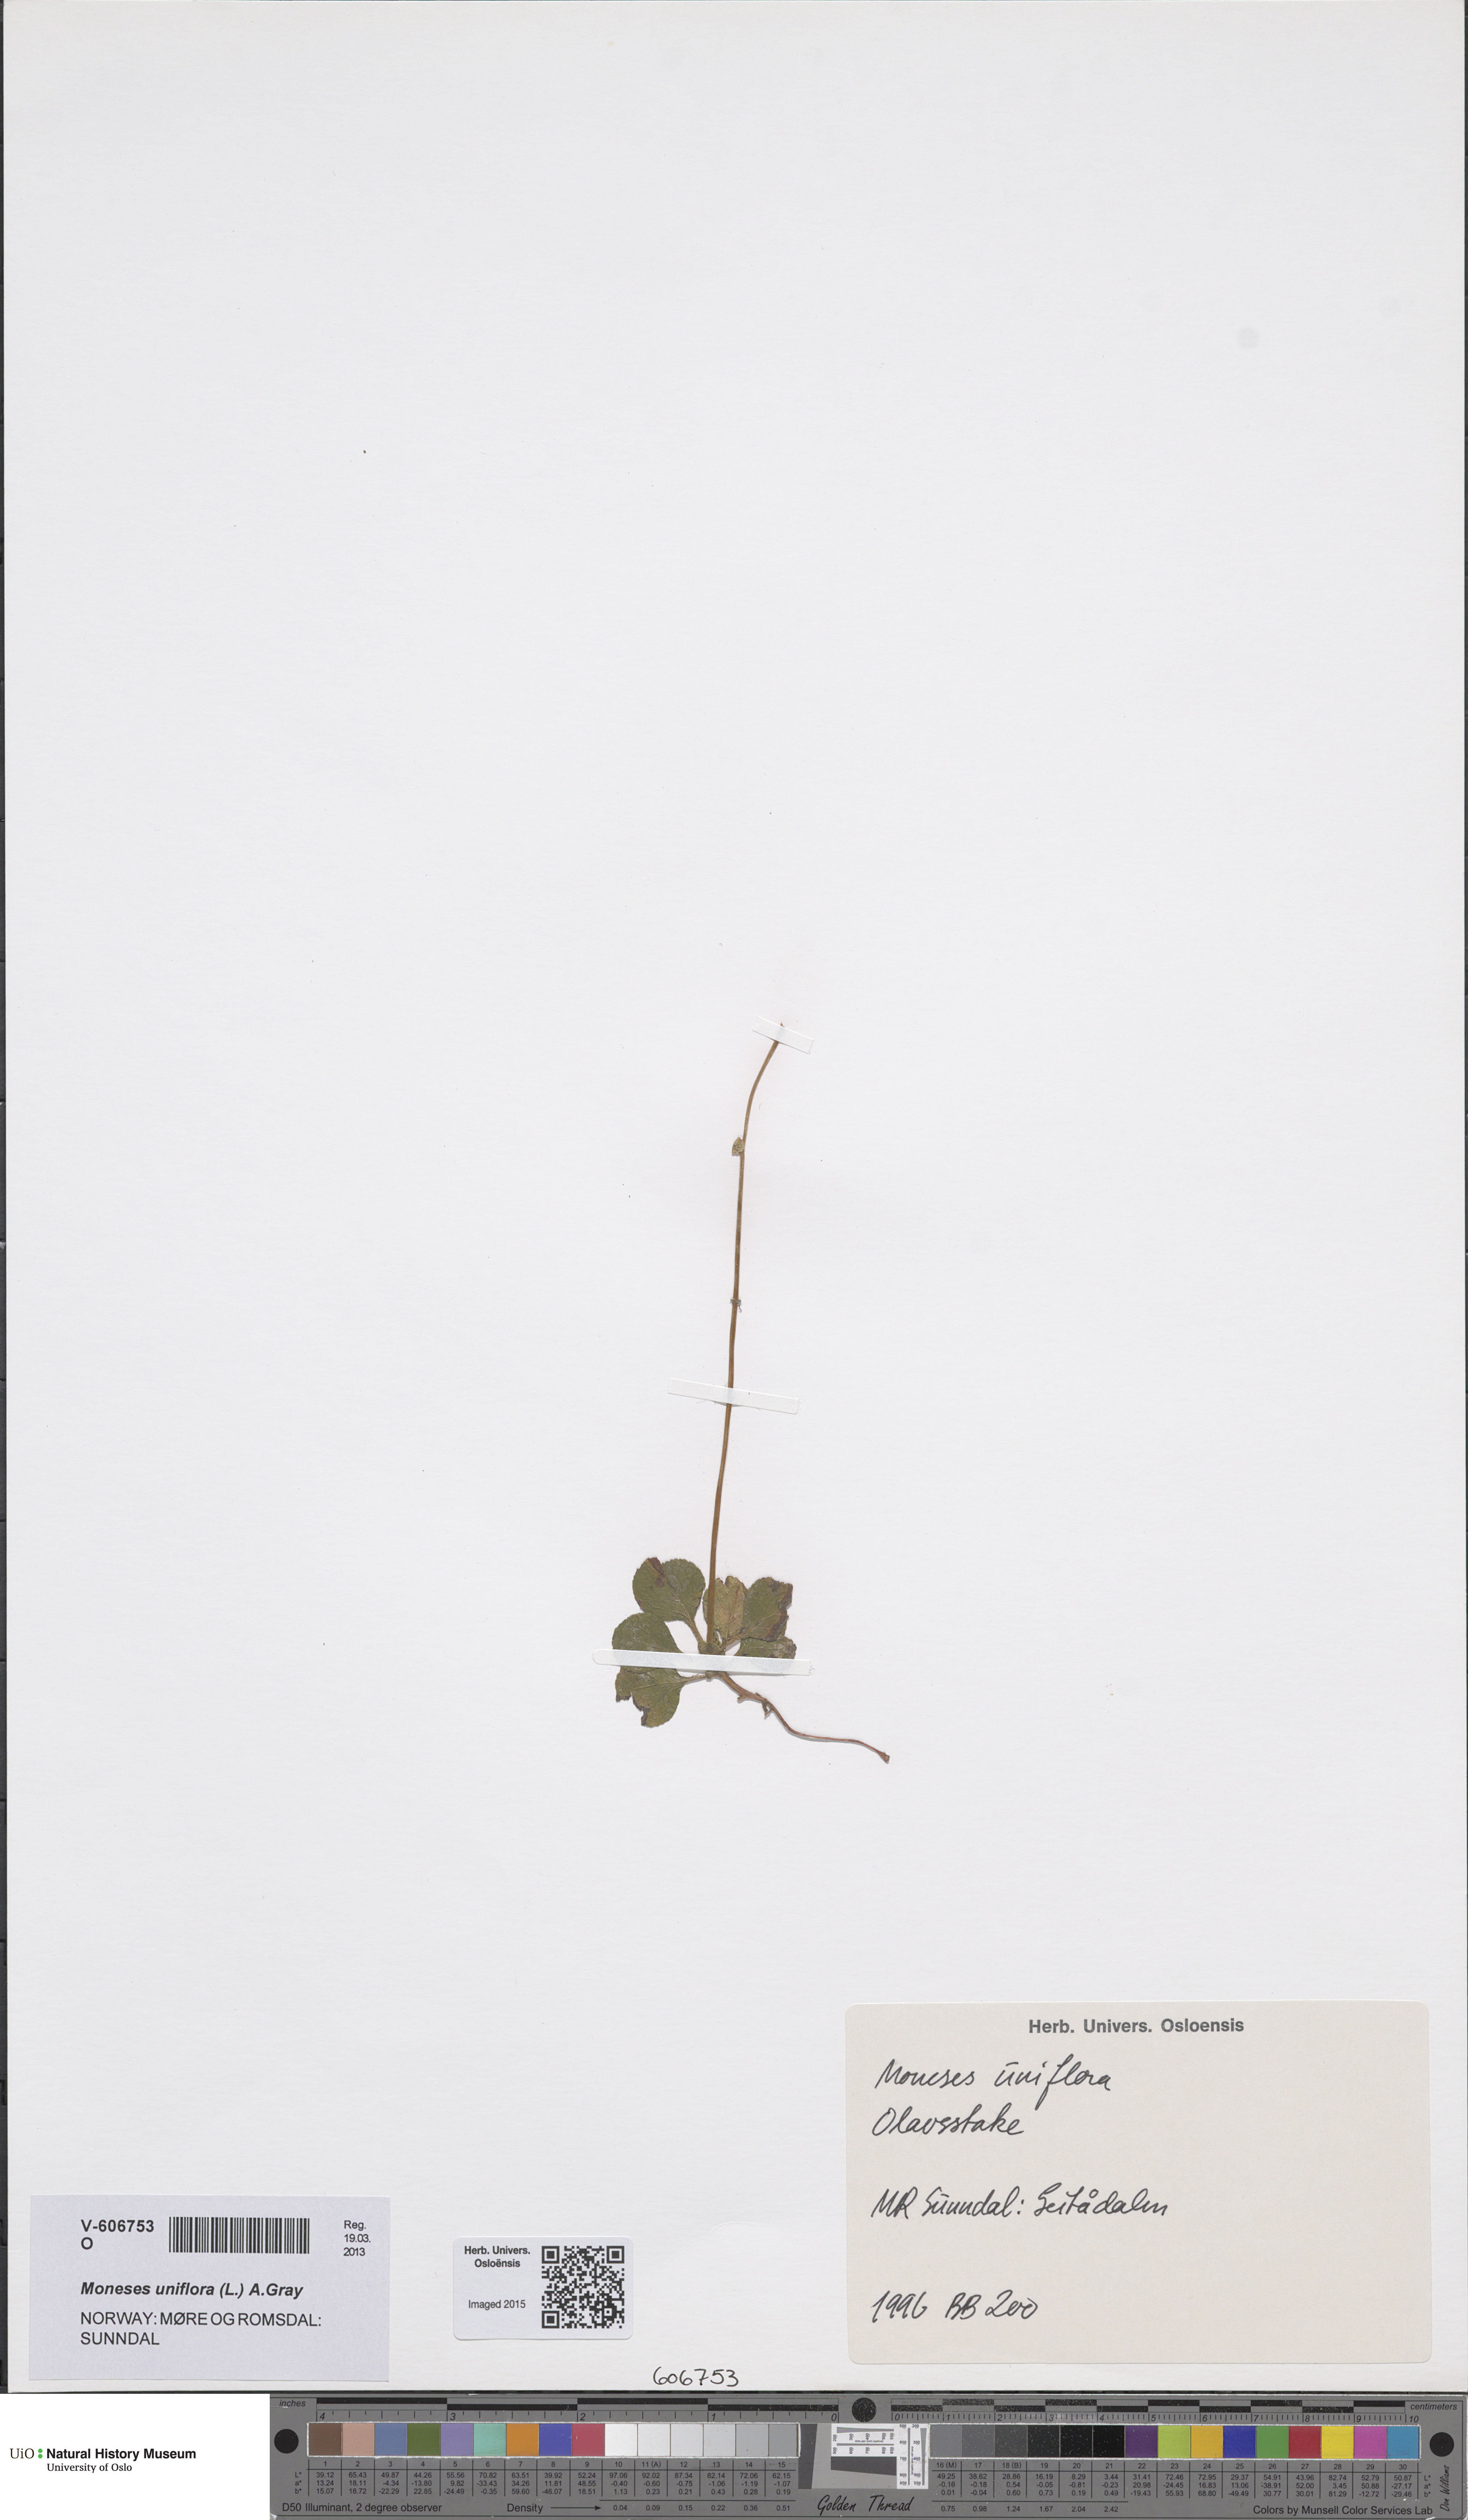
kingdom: Plantae
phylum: Tracheophyta
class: Magnoliopsida
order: Ericales
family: Ericaceae
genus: Moneses
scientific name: Moneses uniflora
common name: One-flowered wintergreen
